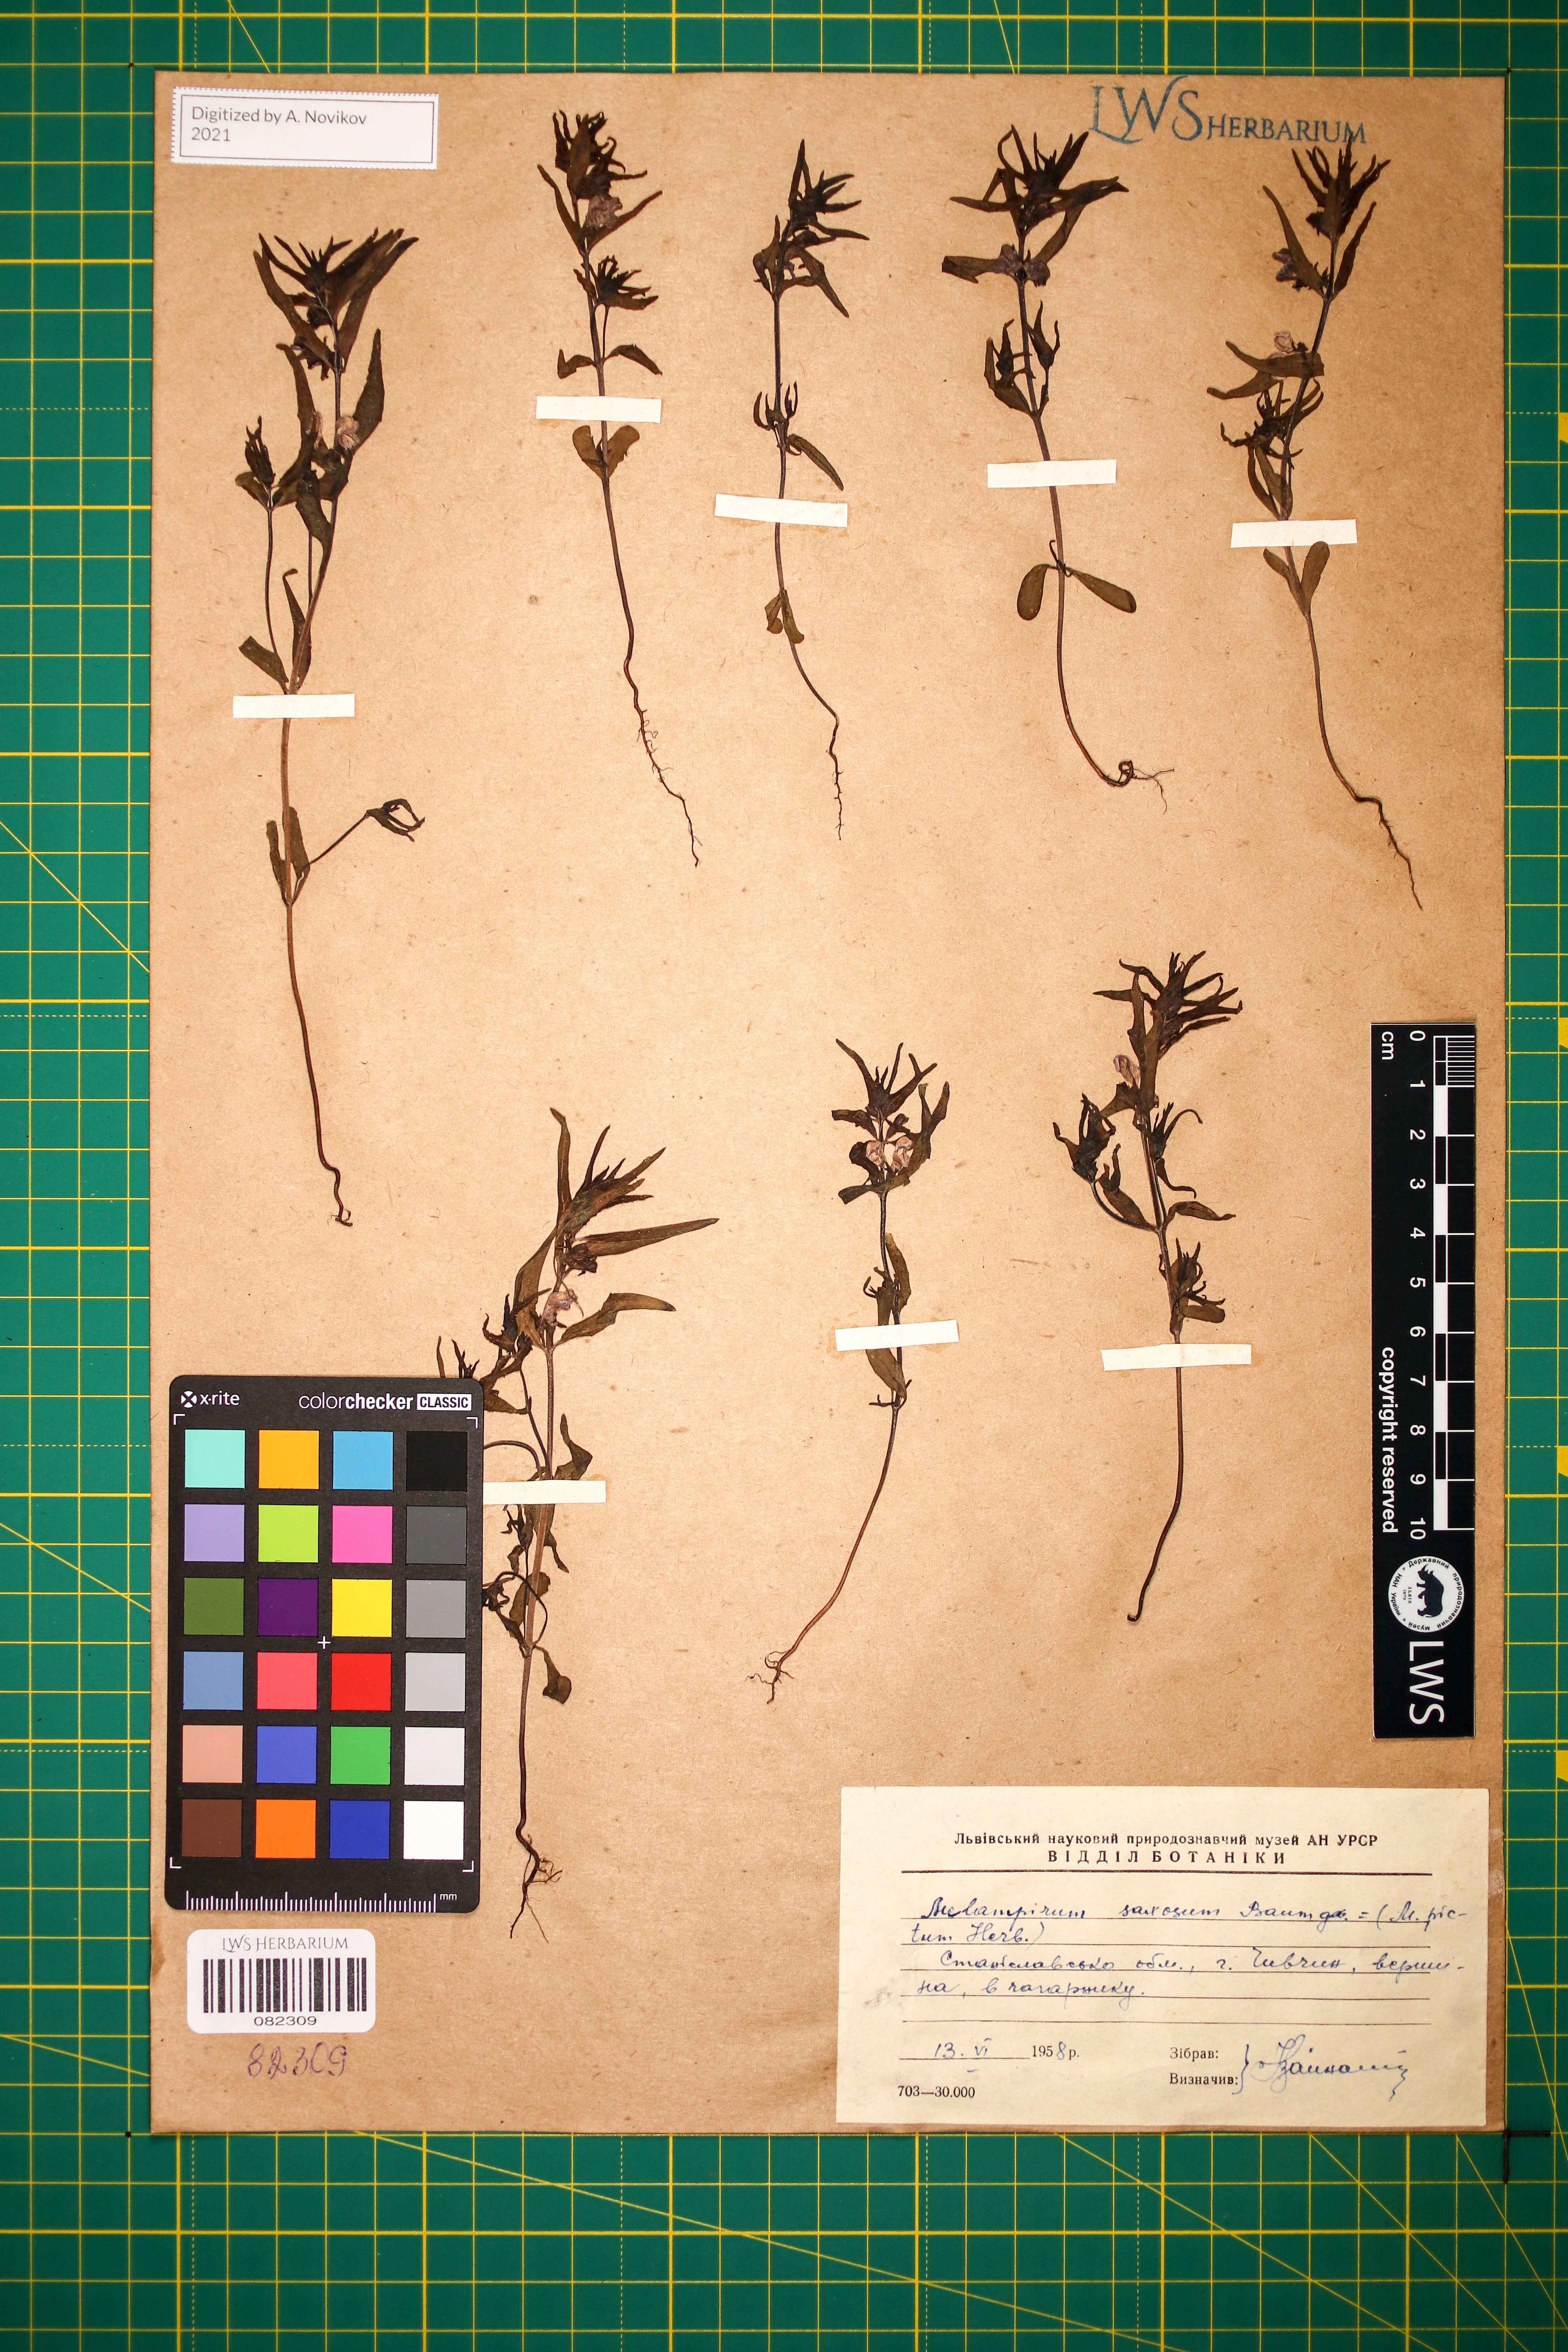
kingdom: Plantae
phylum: Tracheophyta
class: Magnoliopsida
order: Lamiales
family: Orobanchaceae
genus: Melampyrum
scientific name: Melampyrum saxosum
